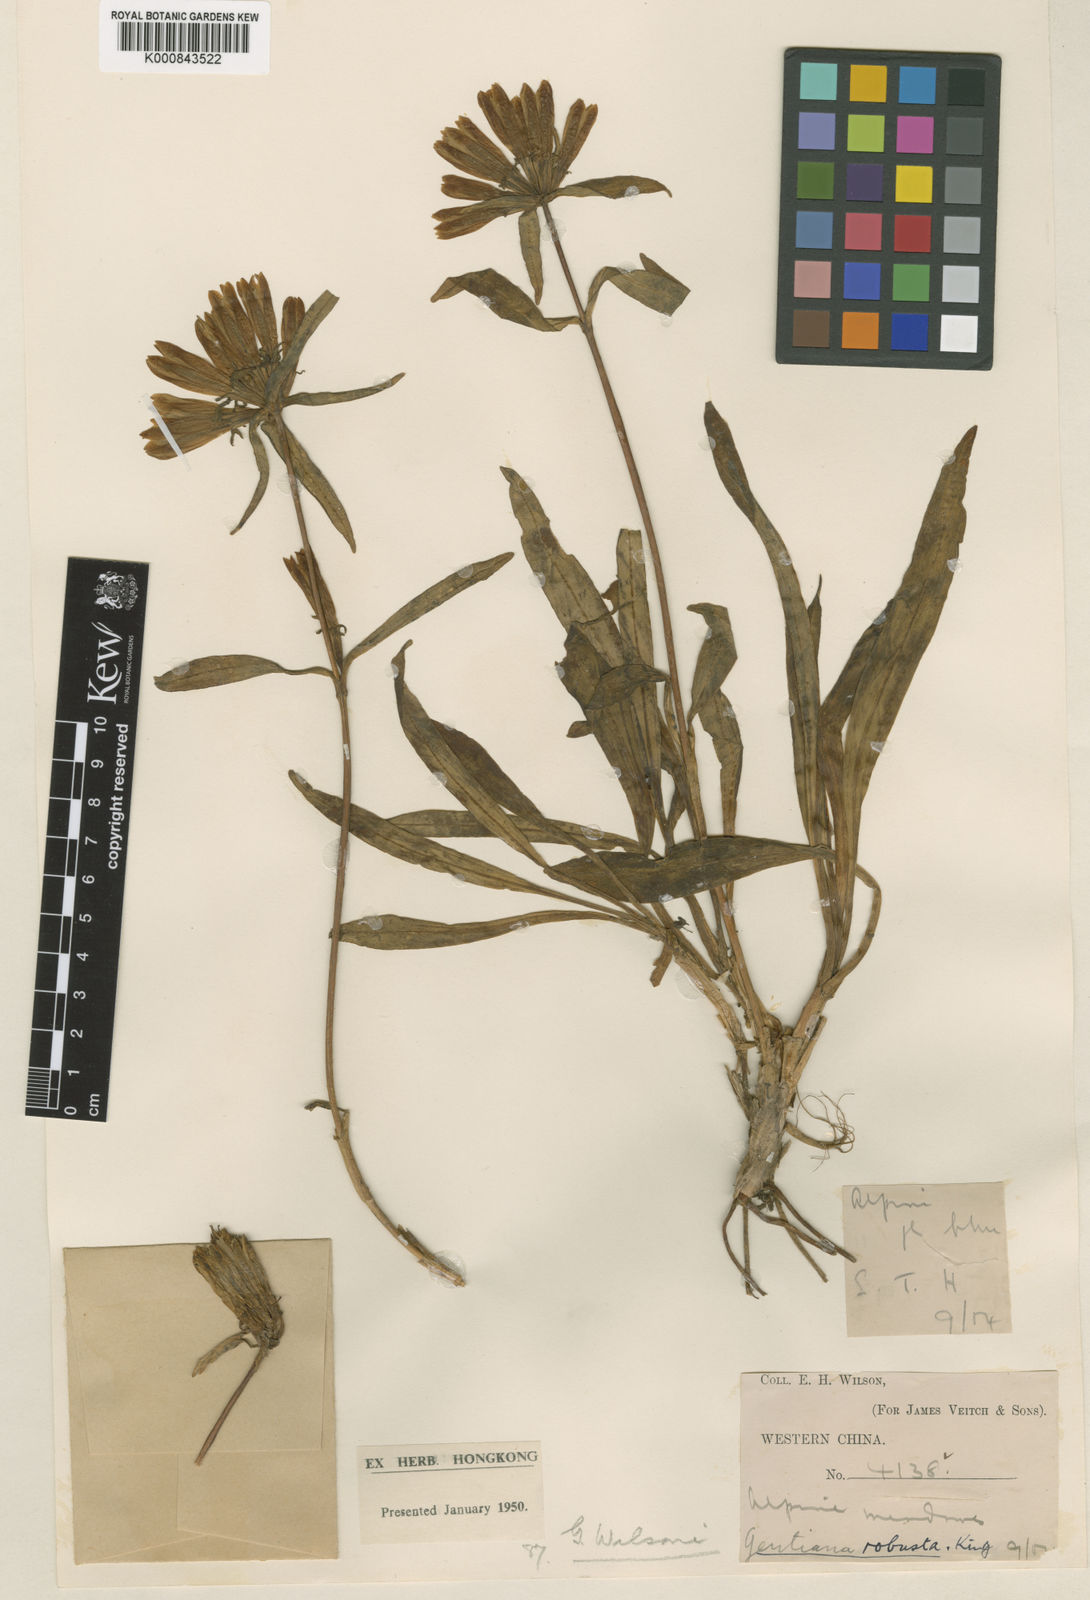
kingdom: Plantae
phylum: Tracheophyta
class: Magnoliopsida
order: Gentianales
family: Gentianaceae
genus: Gentiana
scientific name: Gentiana wilsonii
